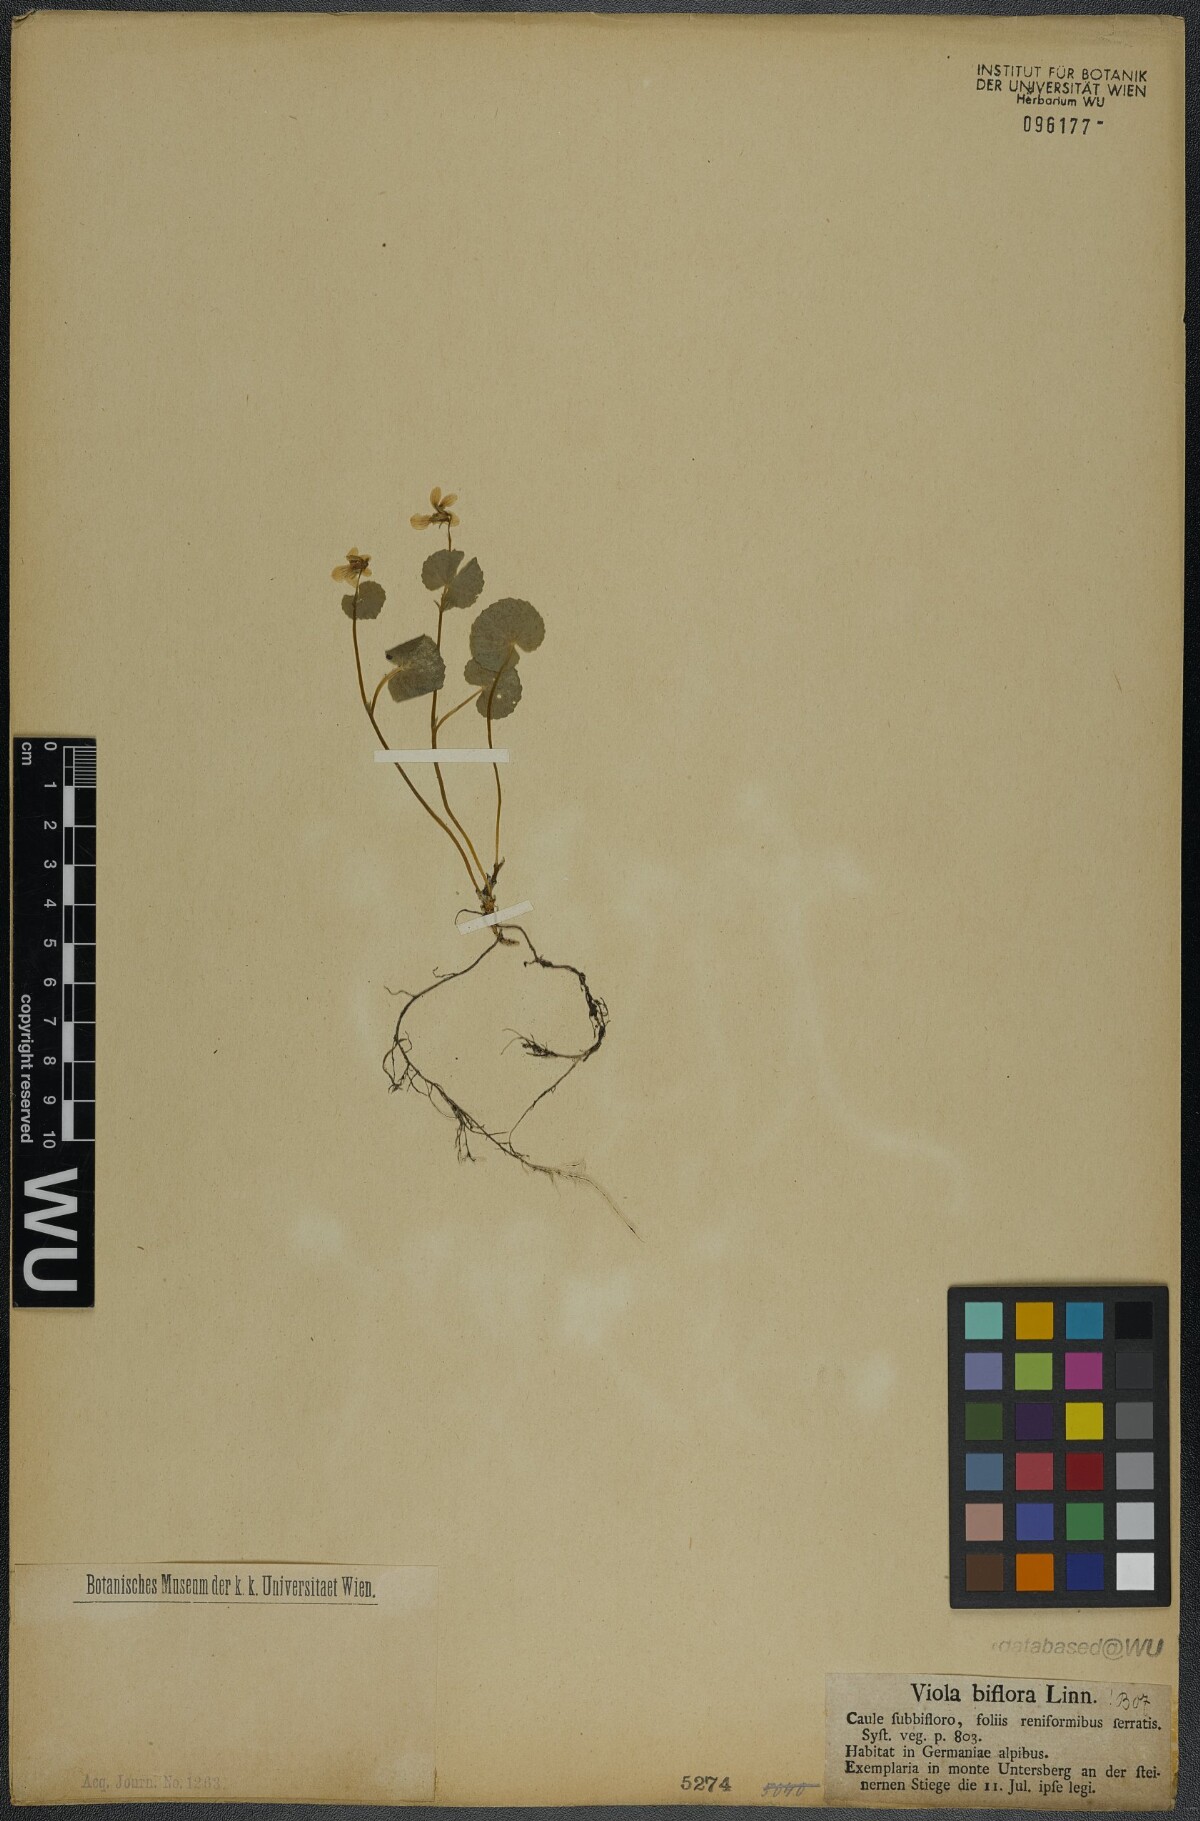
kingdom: Plantae
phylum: Tracheophyta
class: Magnoliopsida
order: Malpighiales
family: Violaceae
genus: Viola
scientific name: Viola biflora
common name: Alpine yellow violet
